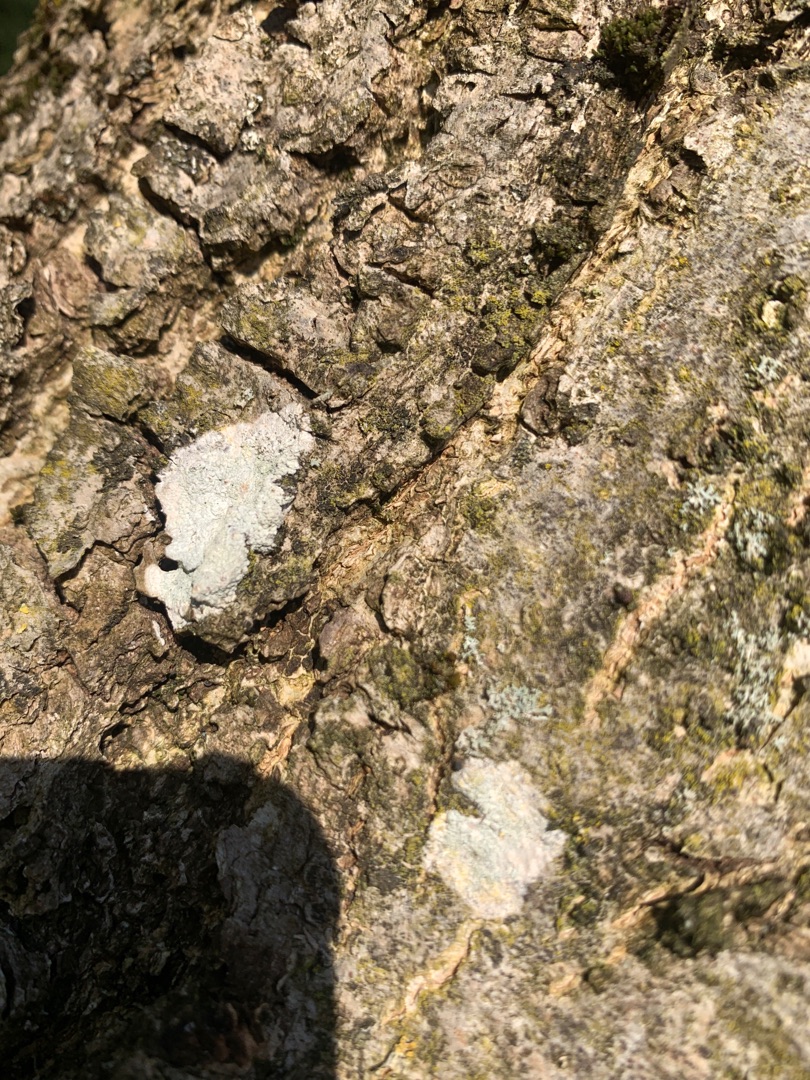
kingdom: Fungi
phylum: Ascomycota
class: Lecanoromycetes
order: Lecanorales
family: Lecanoraceae
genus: Lecidella
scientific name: Lecidella elaeochroma
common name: Grågrøn skivelav
